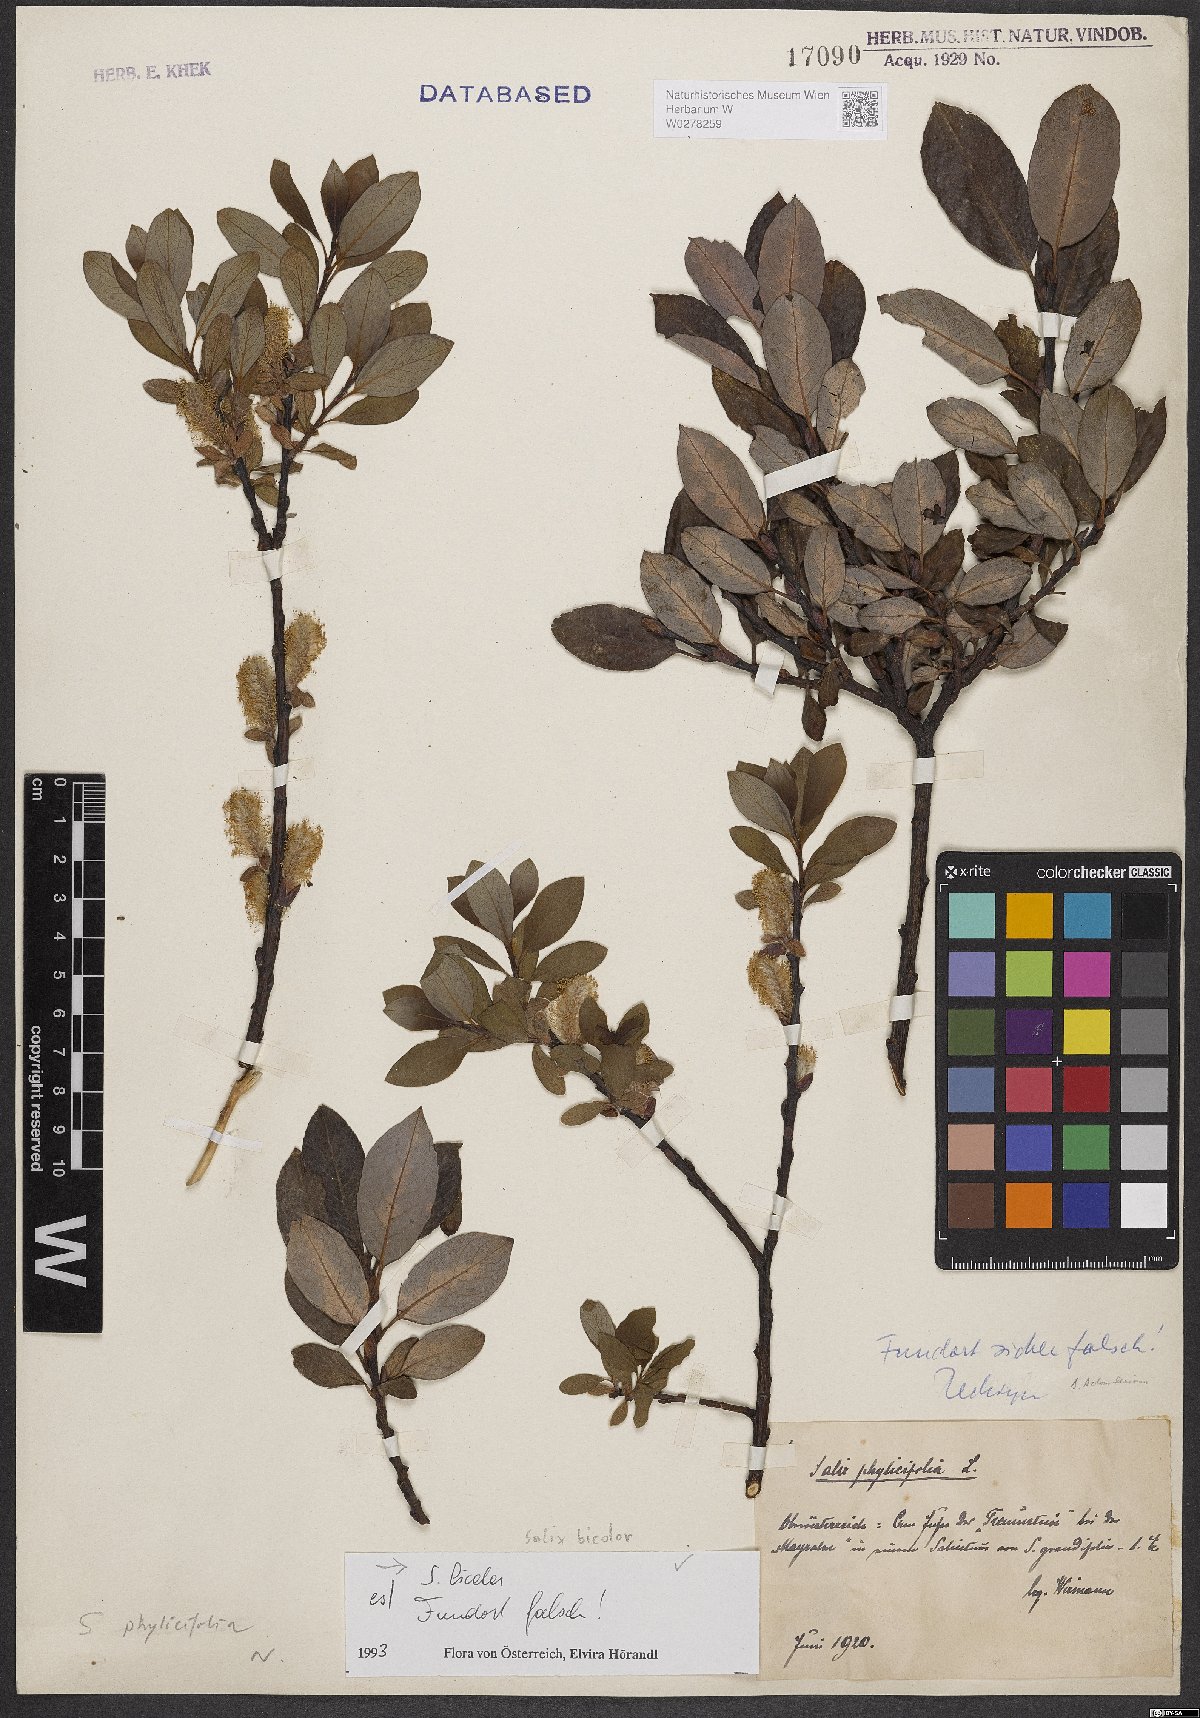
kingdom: Plantae
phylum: Tracheophyta
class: Magnoliopsida
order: Malpighiales
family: Salicaceae
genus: Salix
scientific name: Salix bicolor
